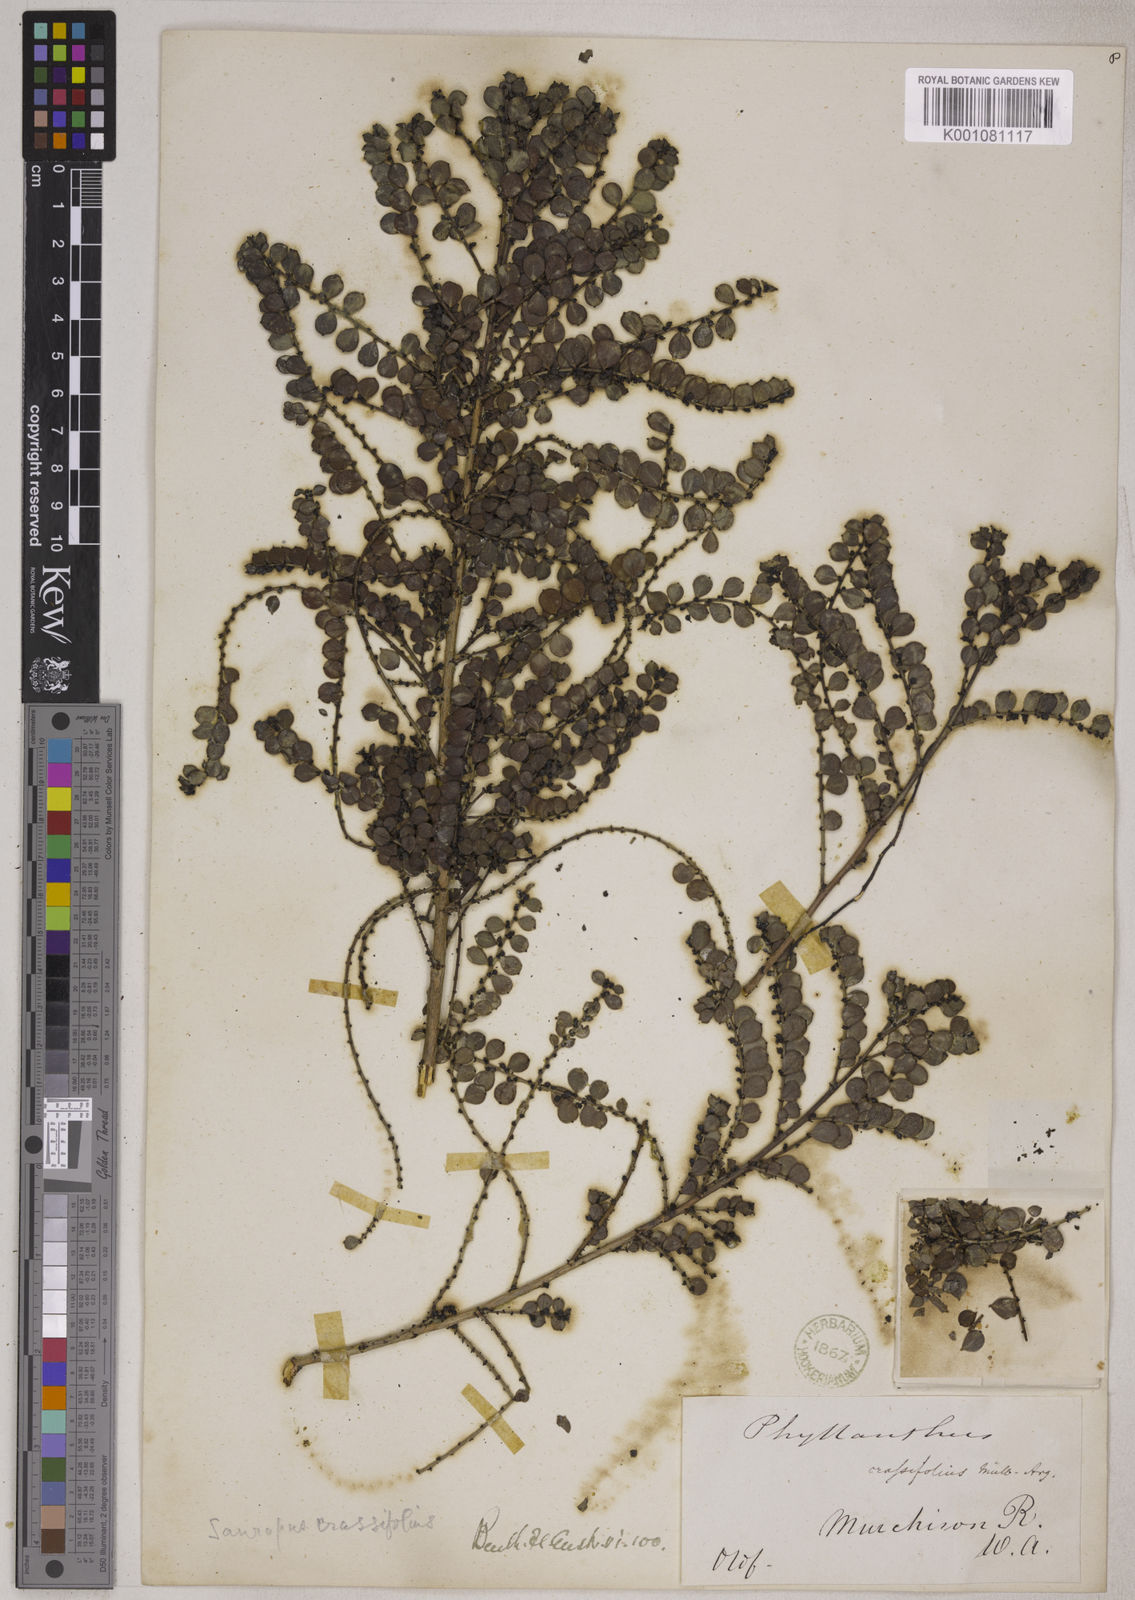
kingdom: Animalia
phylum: Chordata
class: Amphibia
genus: Sauropus
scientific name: Sauropus
